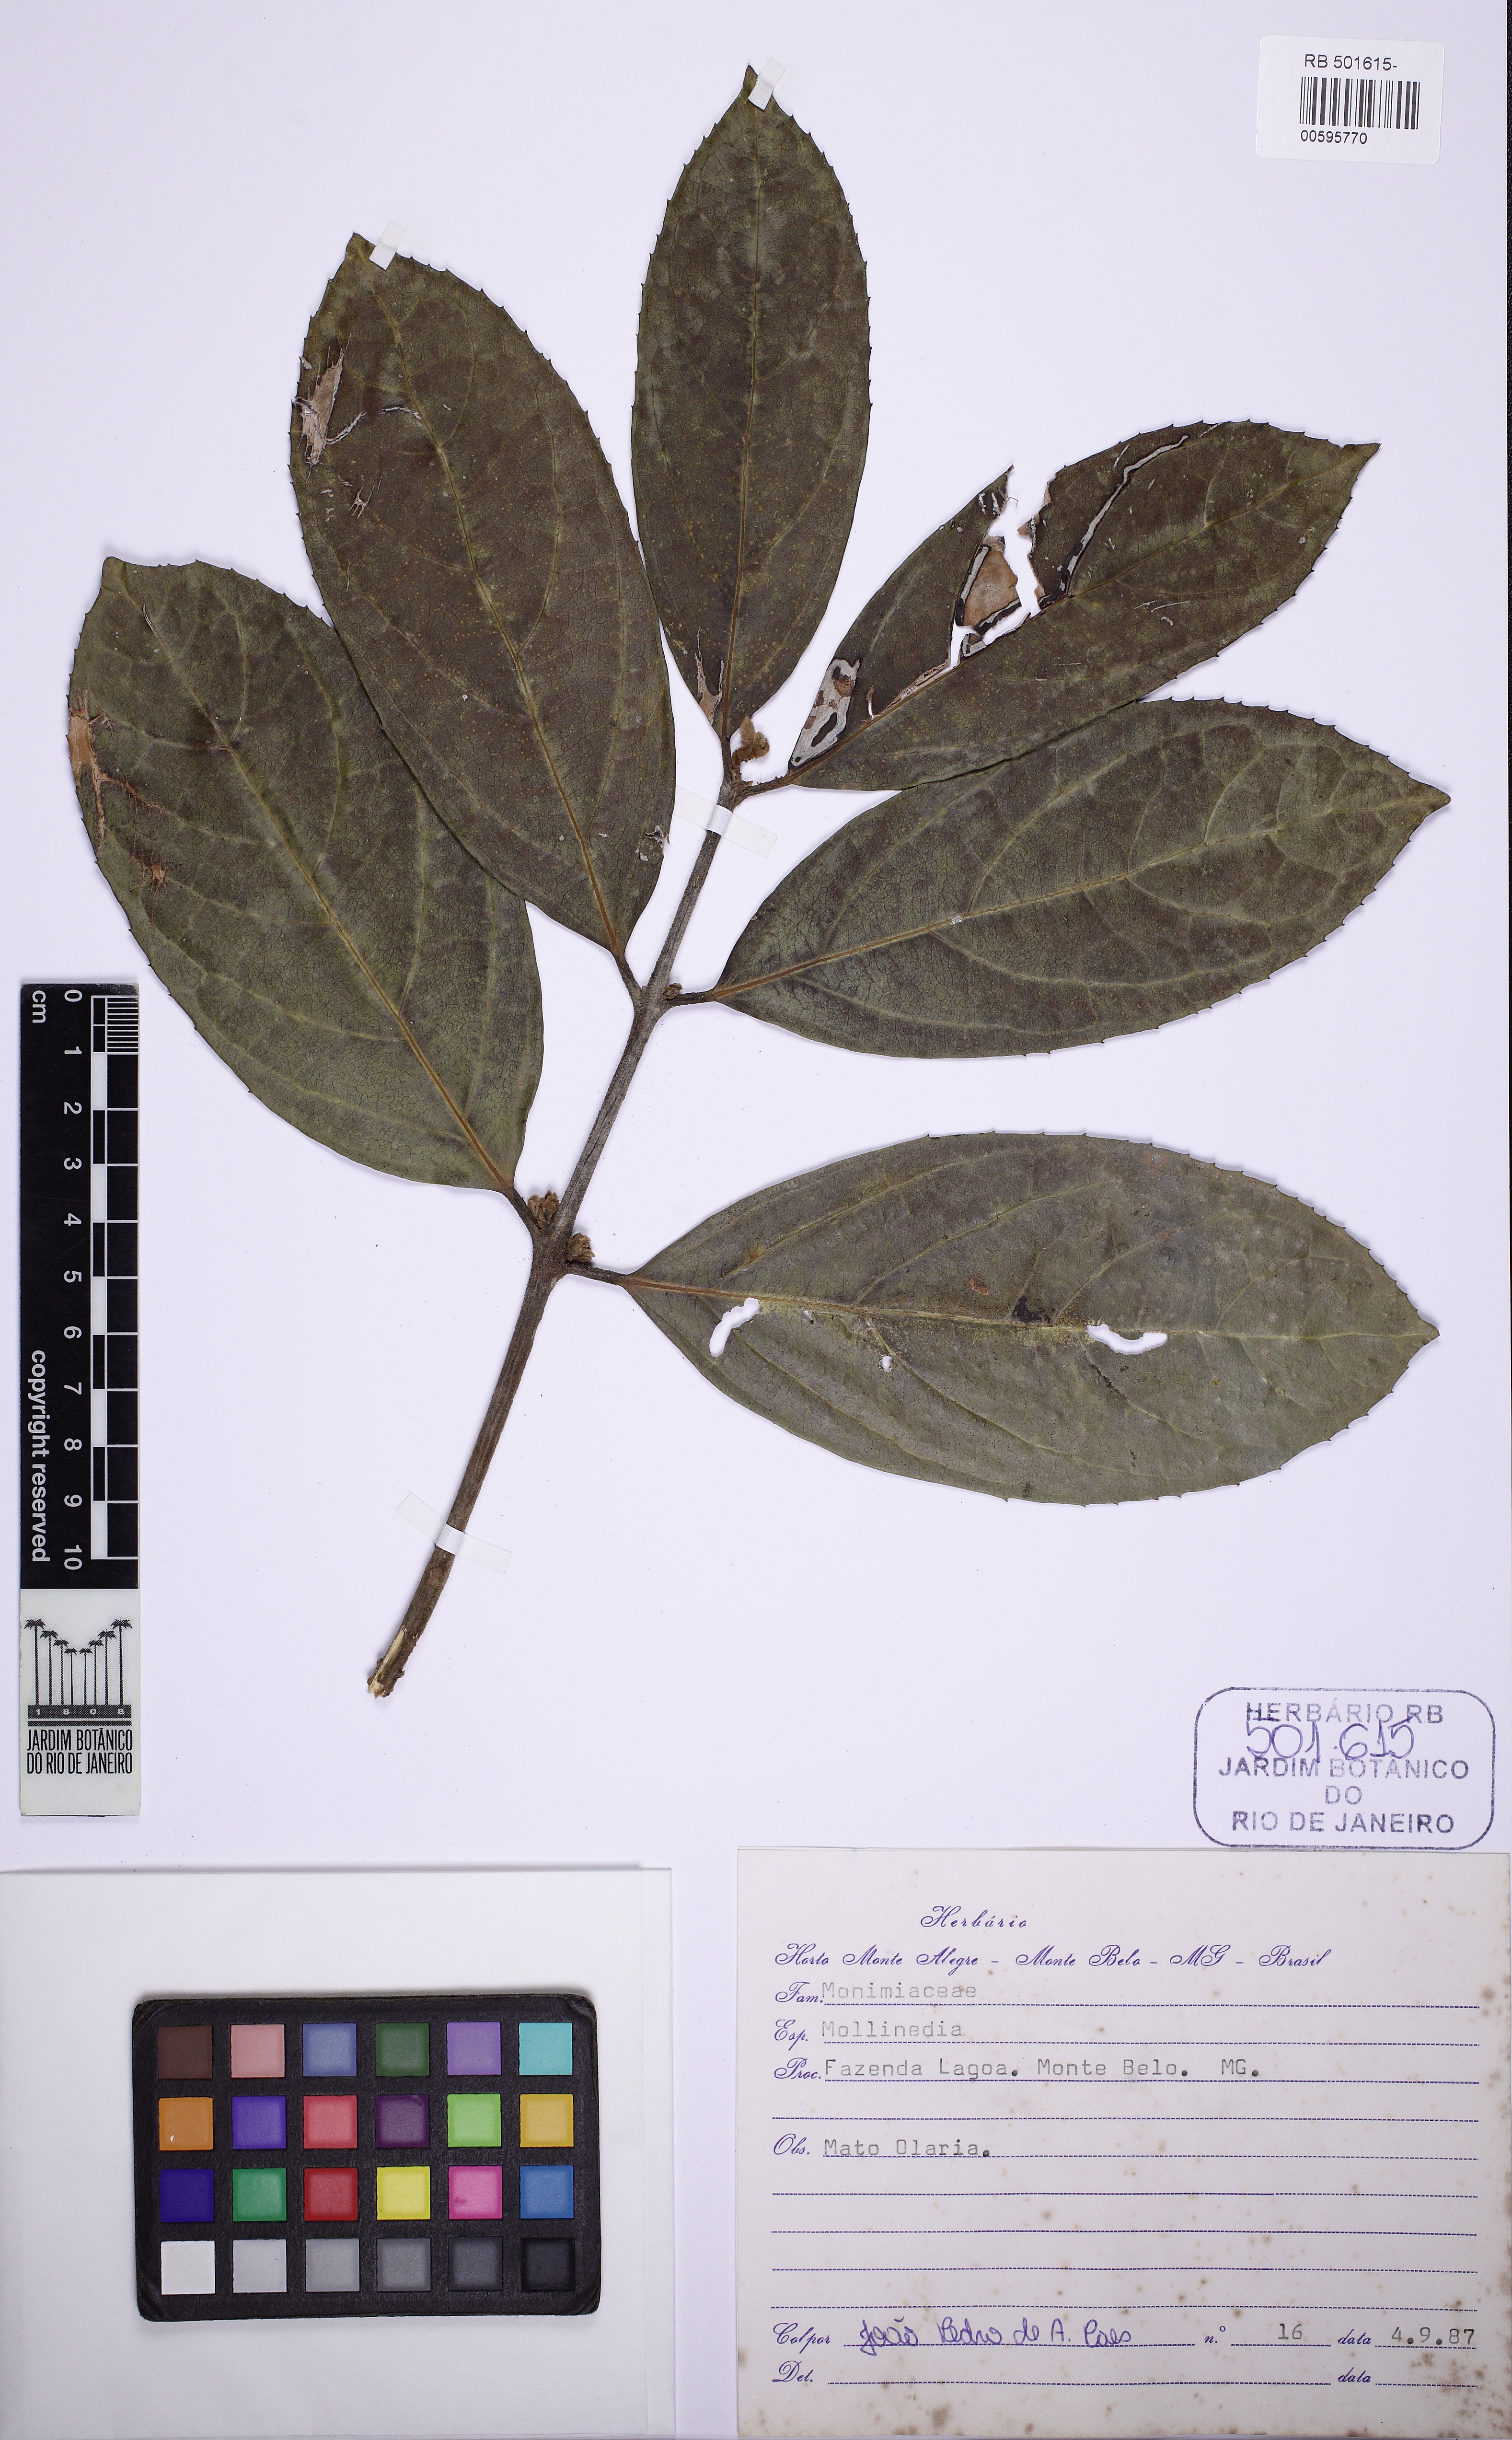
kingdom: Plantae
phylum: Tracheophyta
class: Magnoliopsida
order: Laurales
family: Monimiaceae
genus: Mollinedia
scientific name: Mollinedia widgrenii
